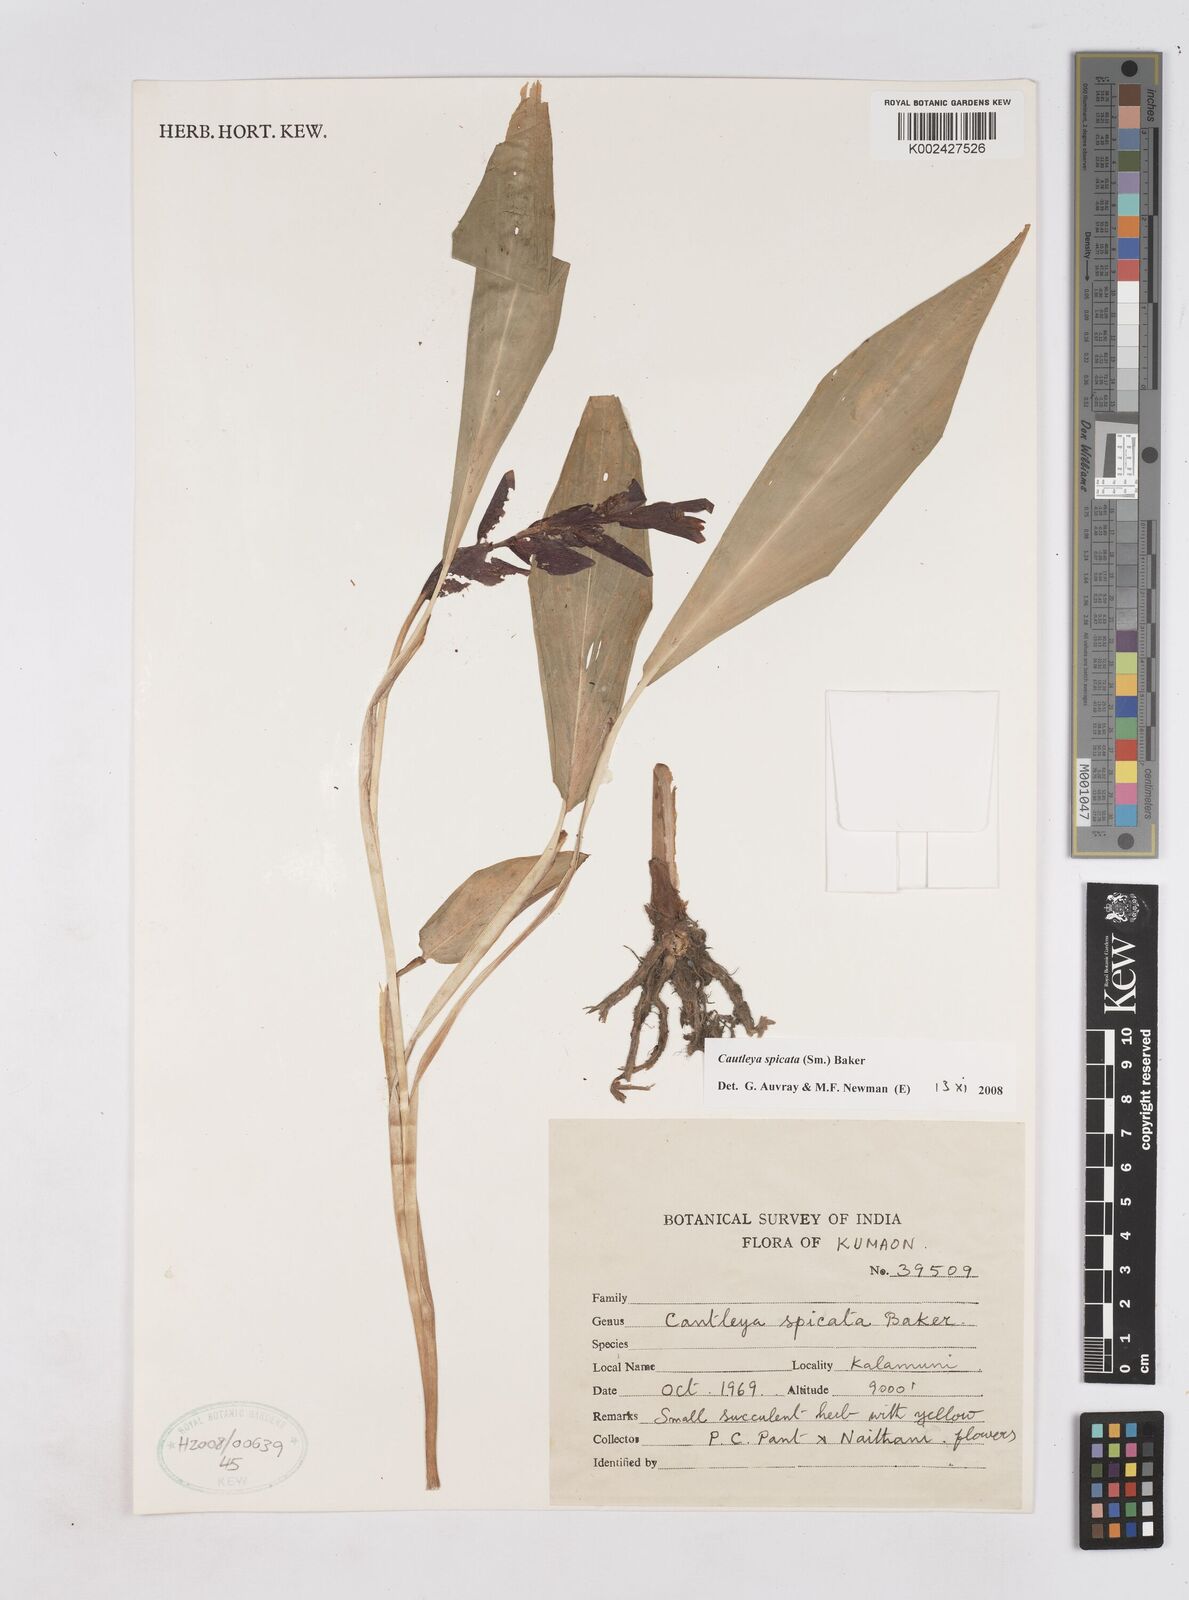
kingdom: Plantae
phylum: Tracheophyta
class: Liliopsida
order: Zingiberales
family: Zingiberaceae
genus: Cautleya
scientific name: Cautleya spicata
